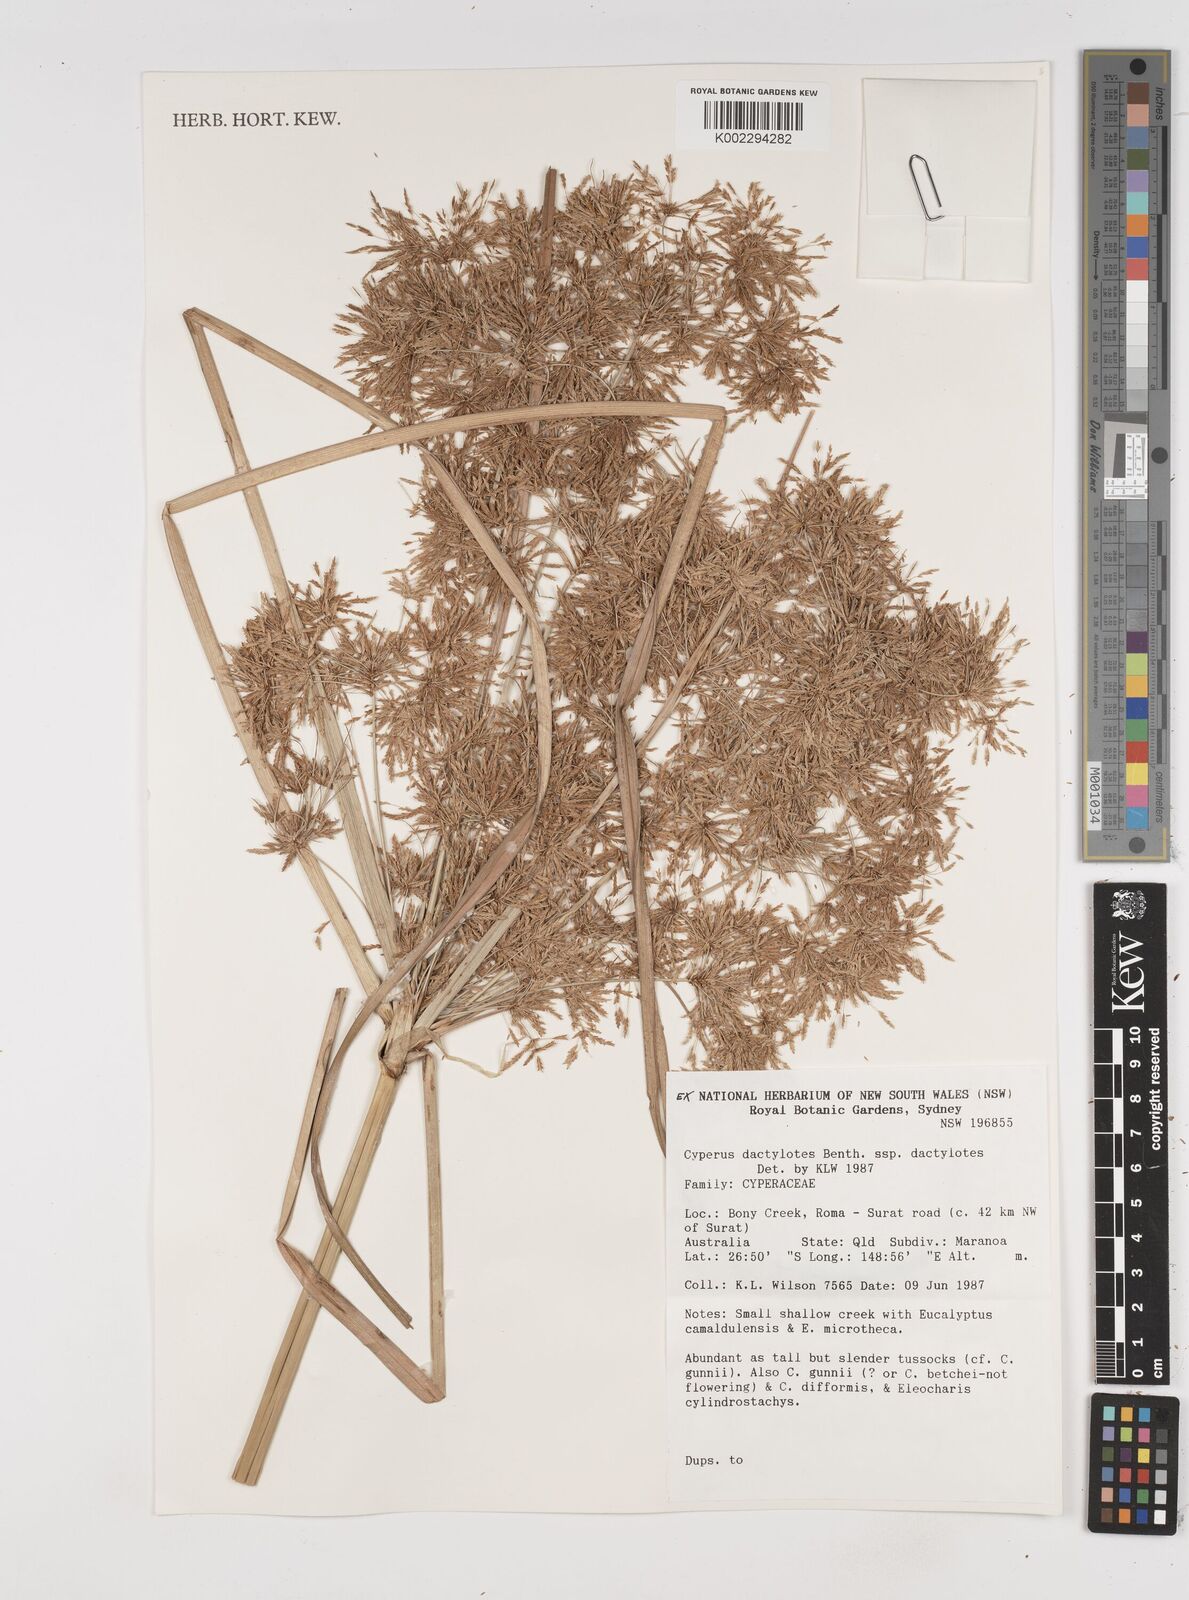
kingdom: Plantae
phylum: Tracheophyta
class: Liliopsida
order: Poales
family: Cyperaceae
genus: Cyperus
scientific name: Cyperus dactylotes
